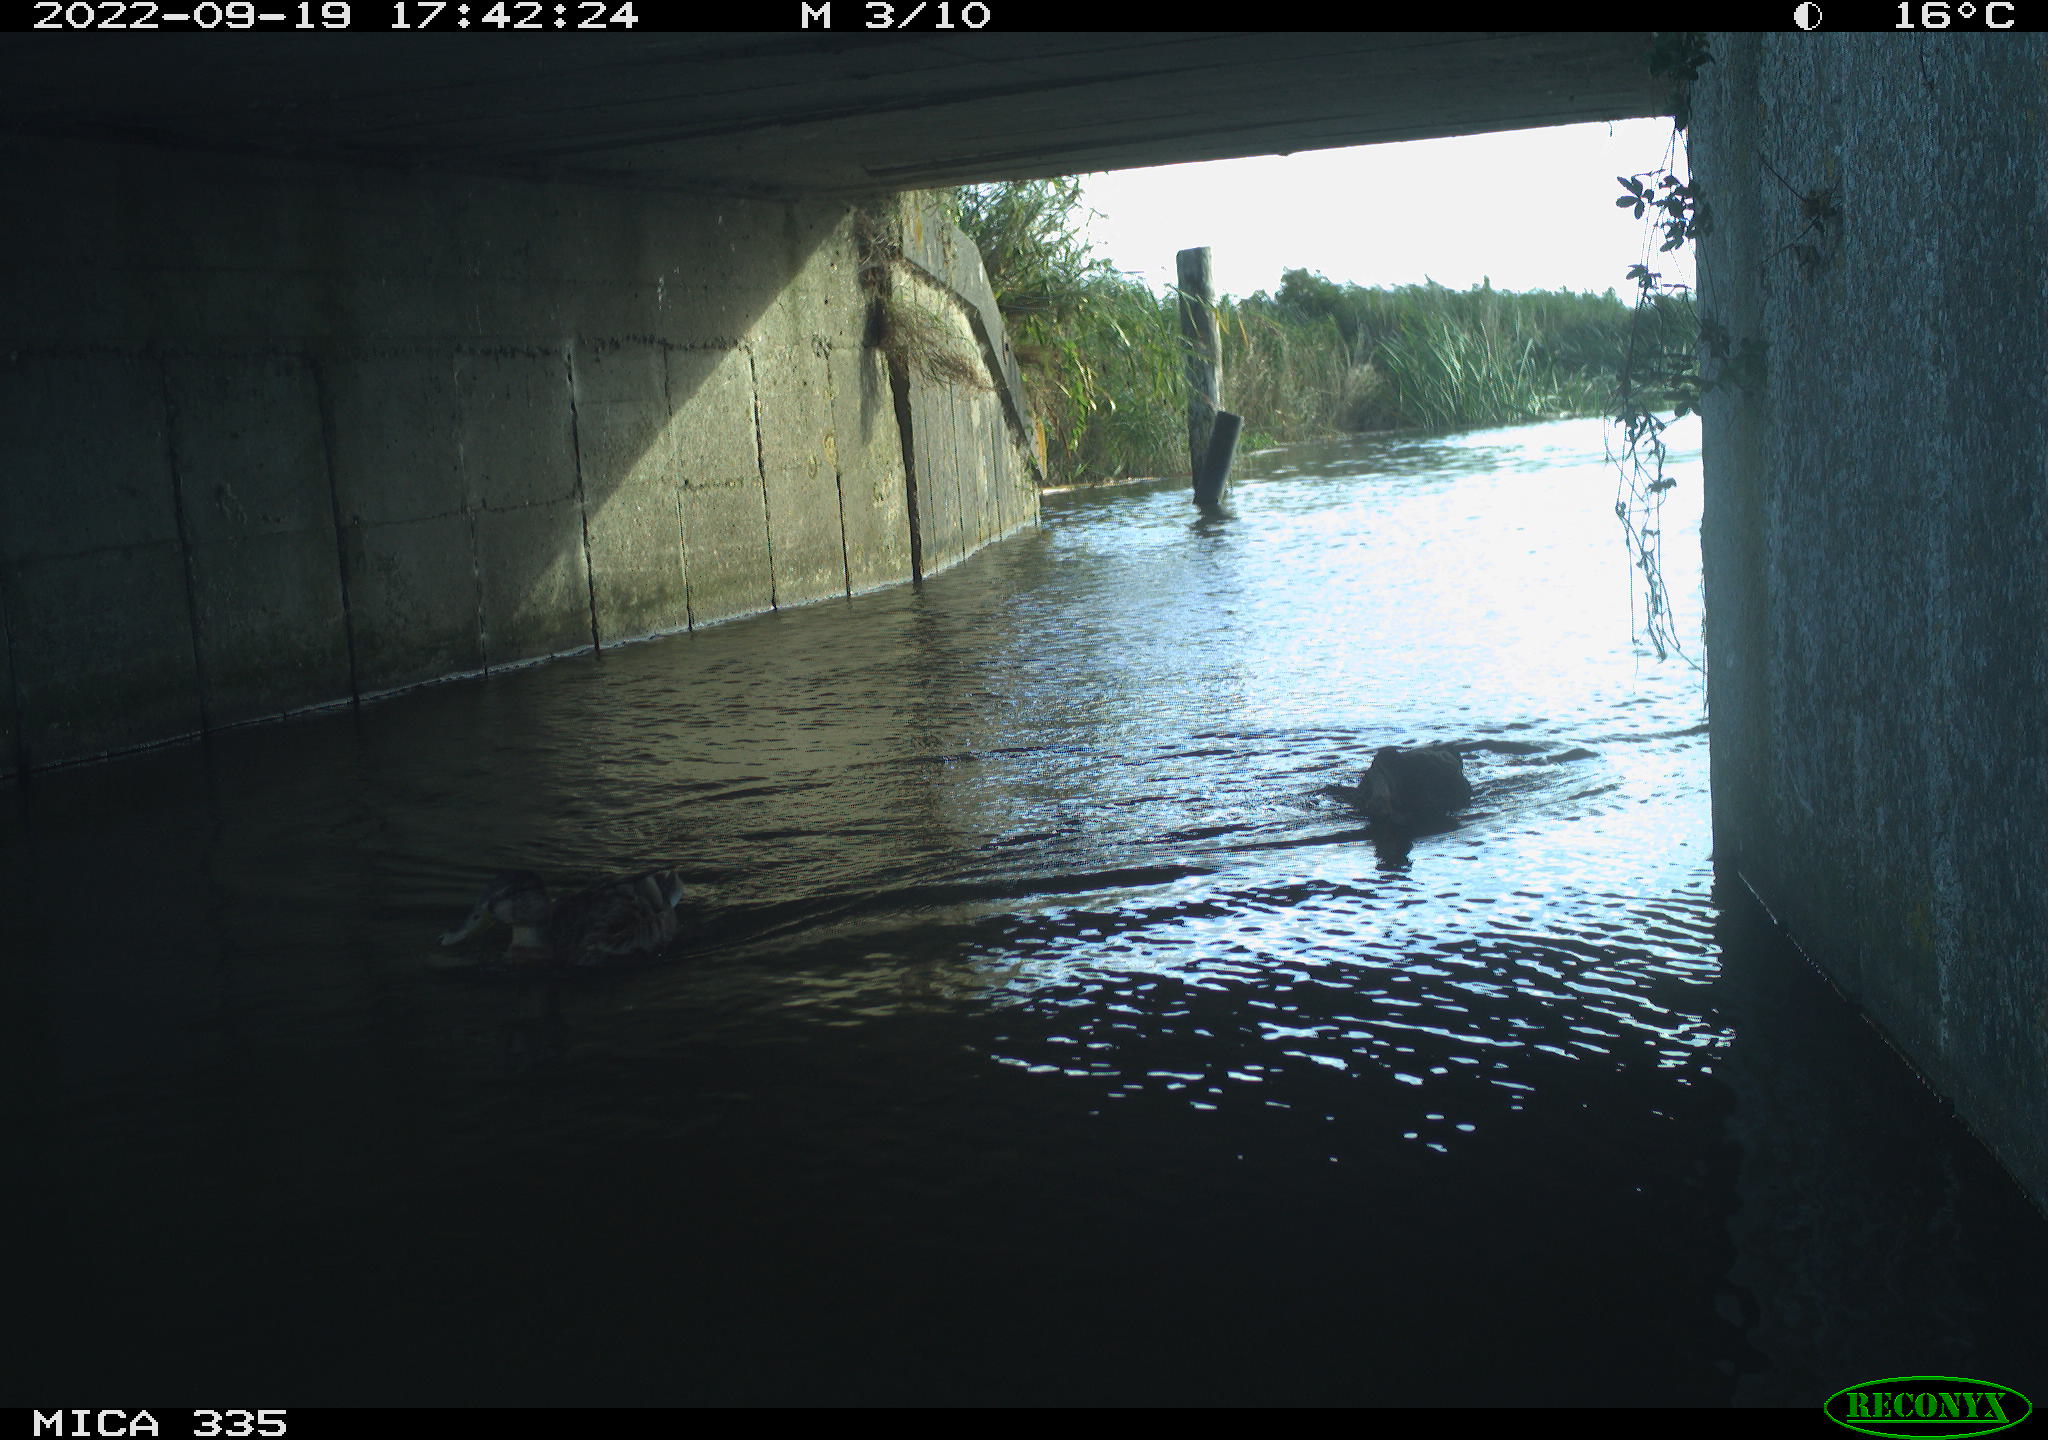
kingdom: Animalia
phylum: Chordata
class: Aves
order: Anseriformes
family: Anatidae
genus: Anas
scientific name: Anas
